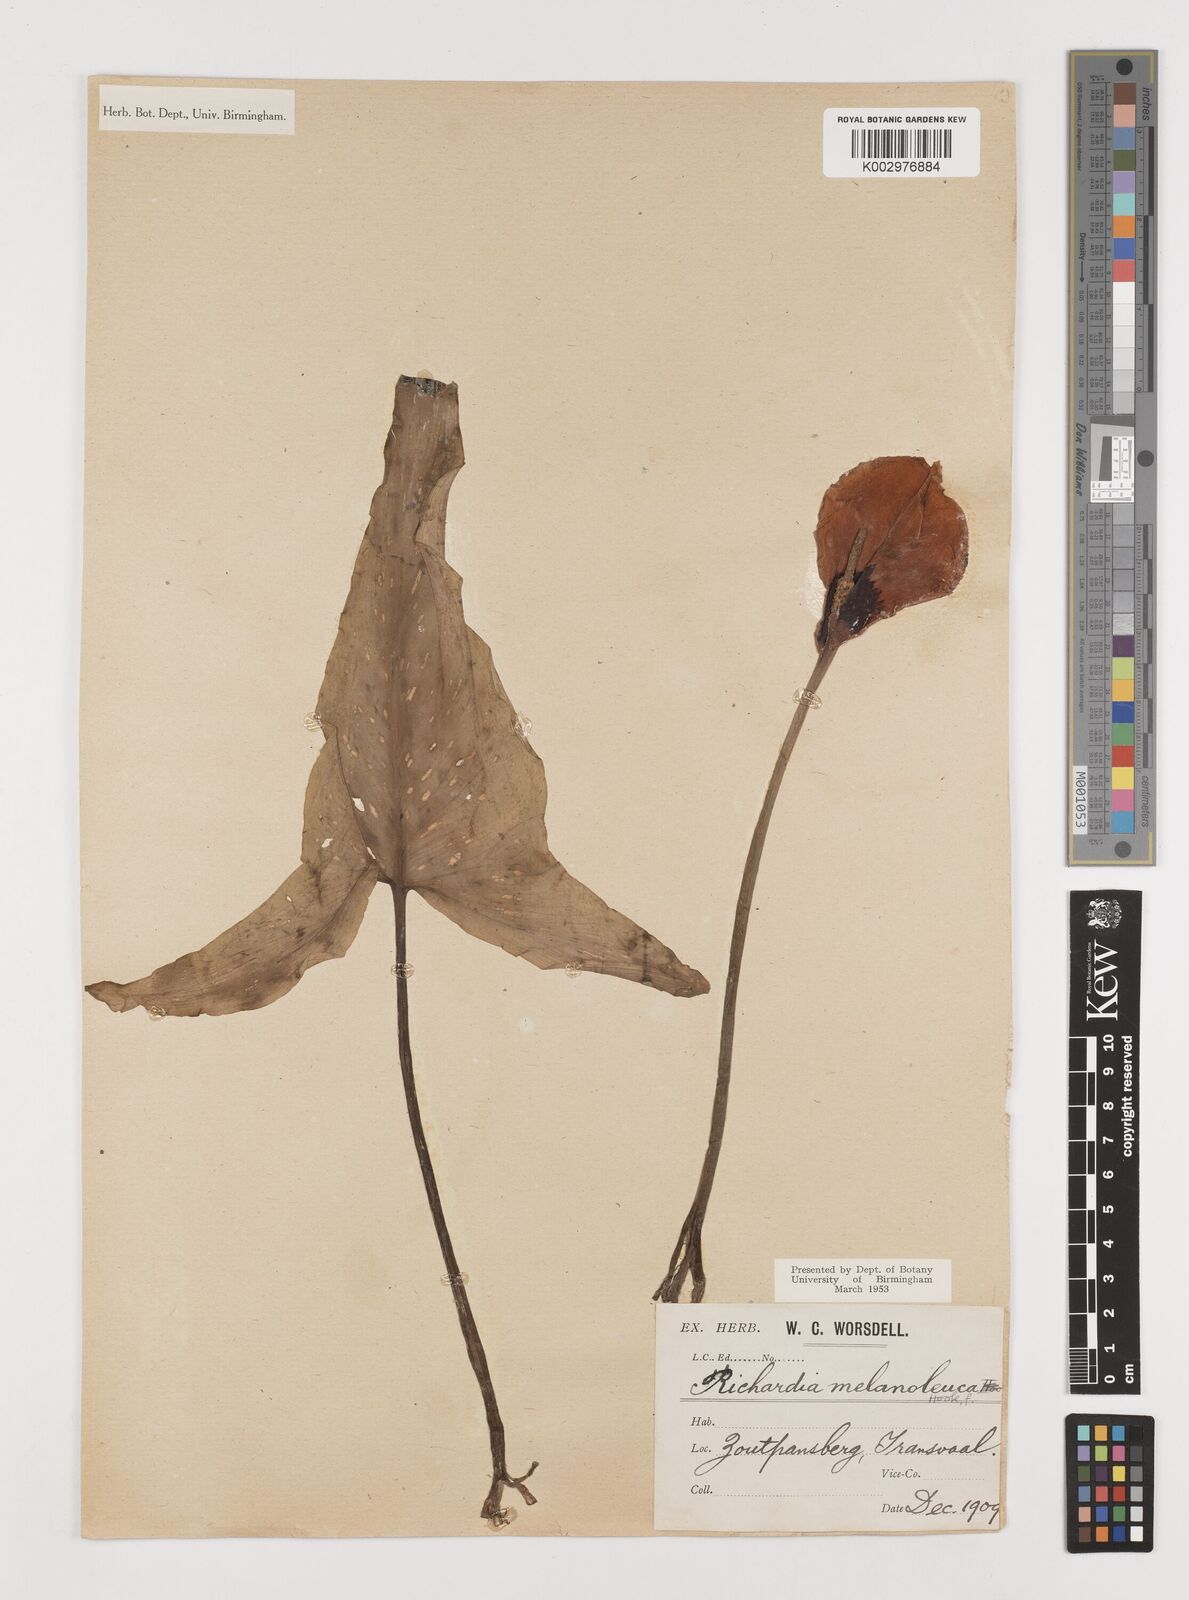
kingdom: Plantae
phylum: Tracheophyta
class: Liliopsida
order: Alismatales
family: Araceae
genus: Zantedeschia
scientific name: Zantedeschia albomaculata
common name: Spotted calla lily
